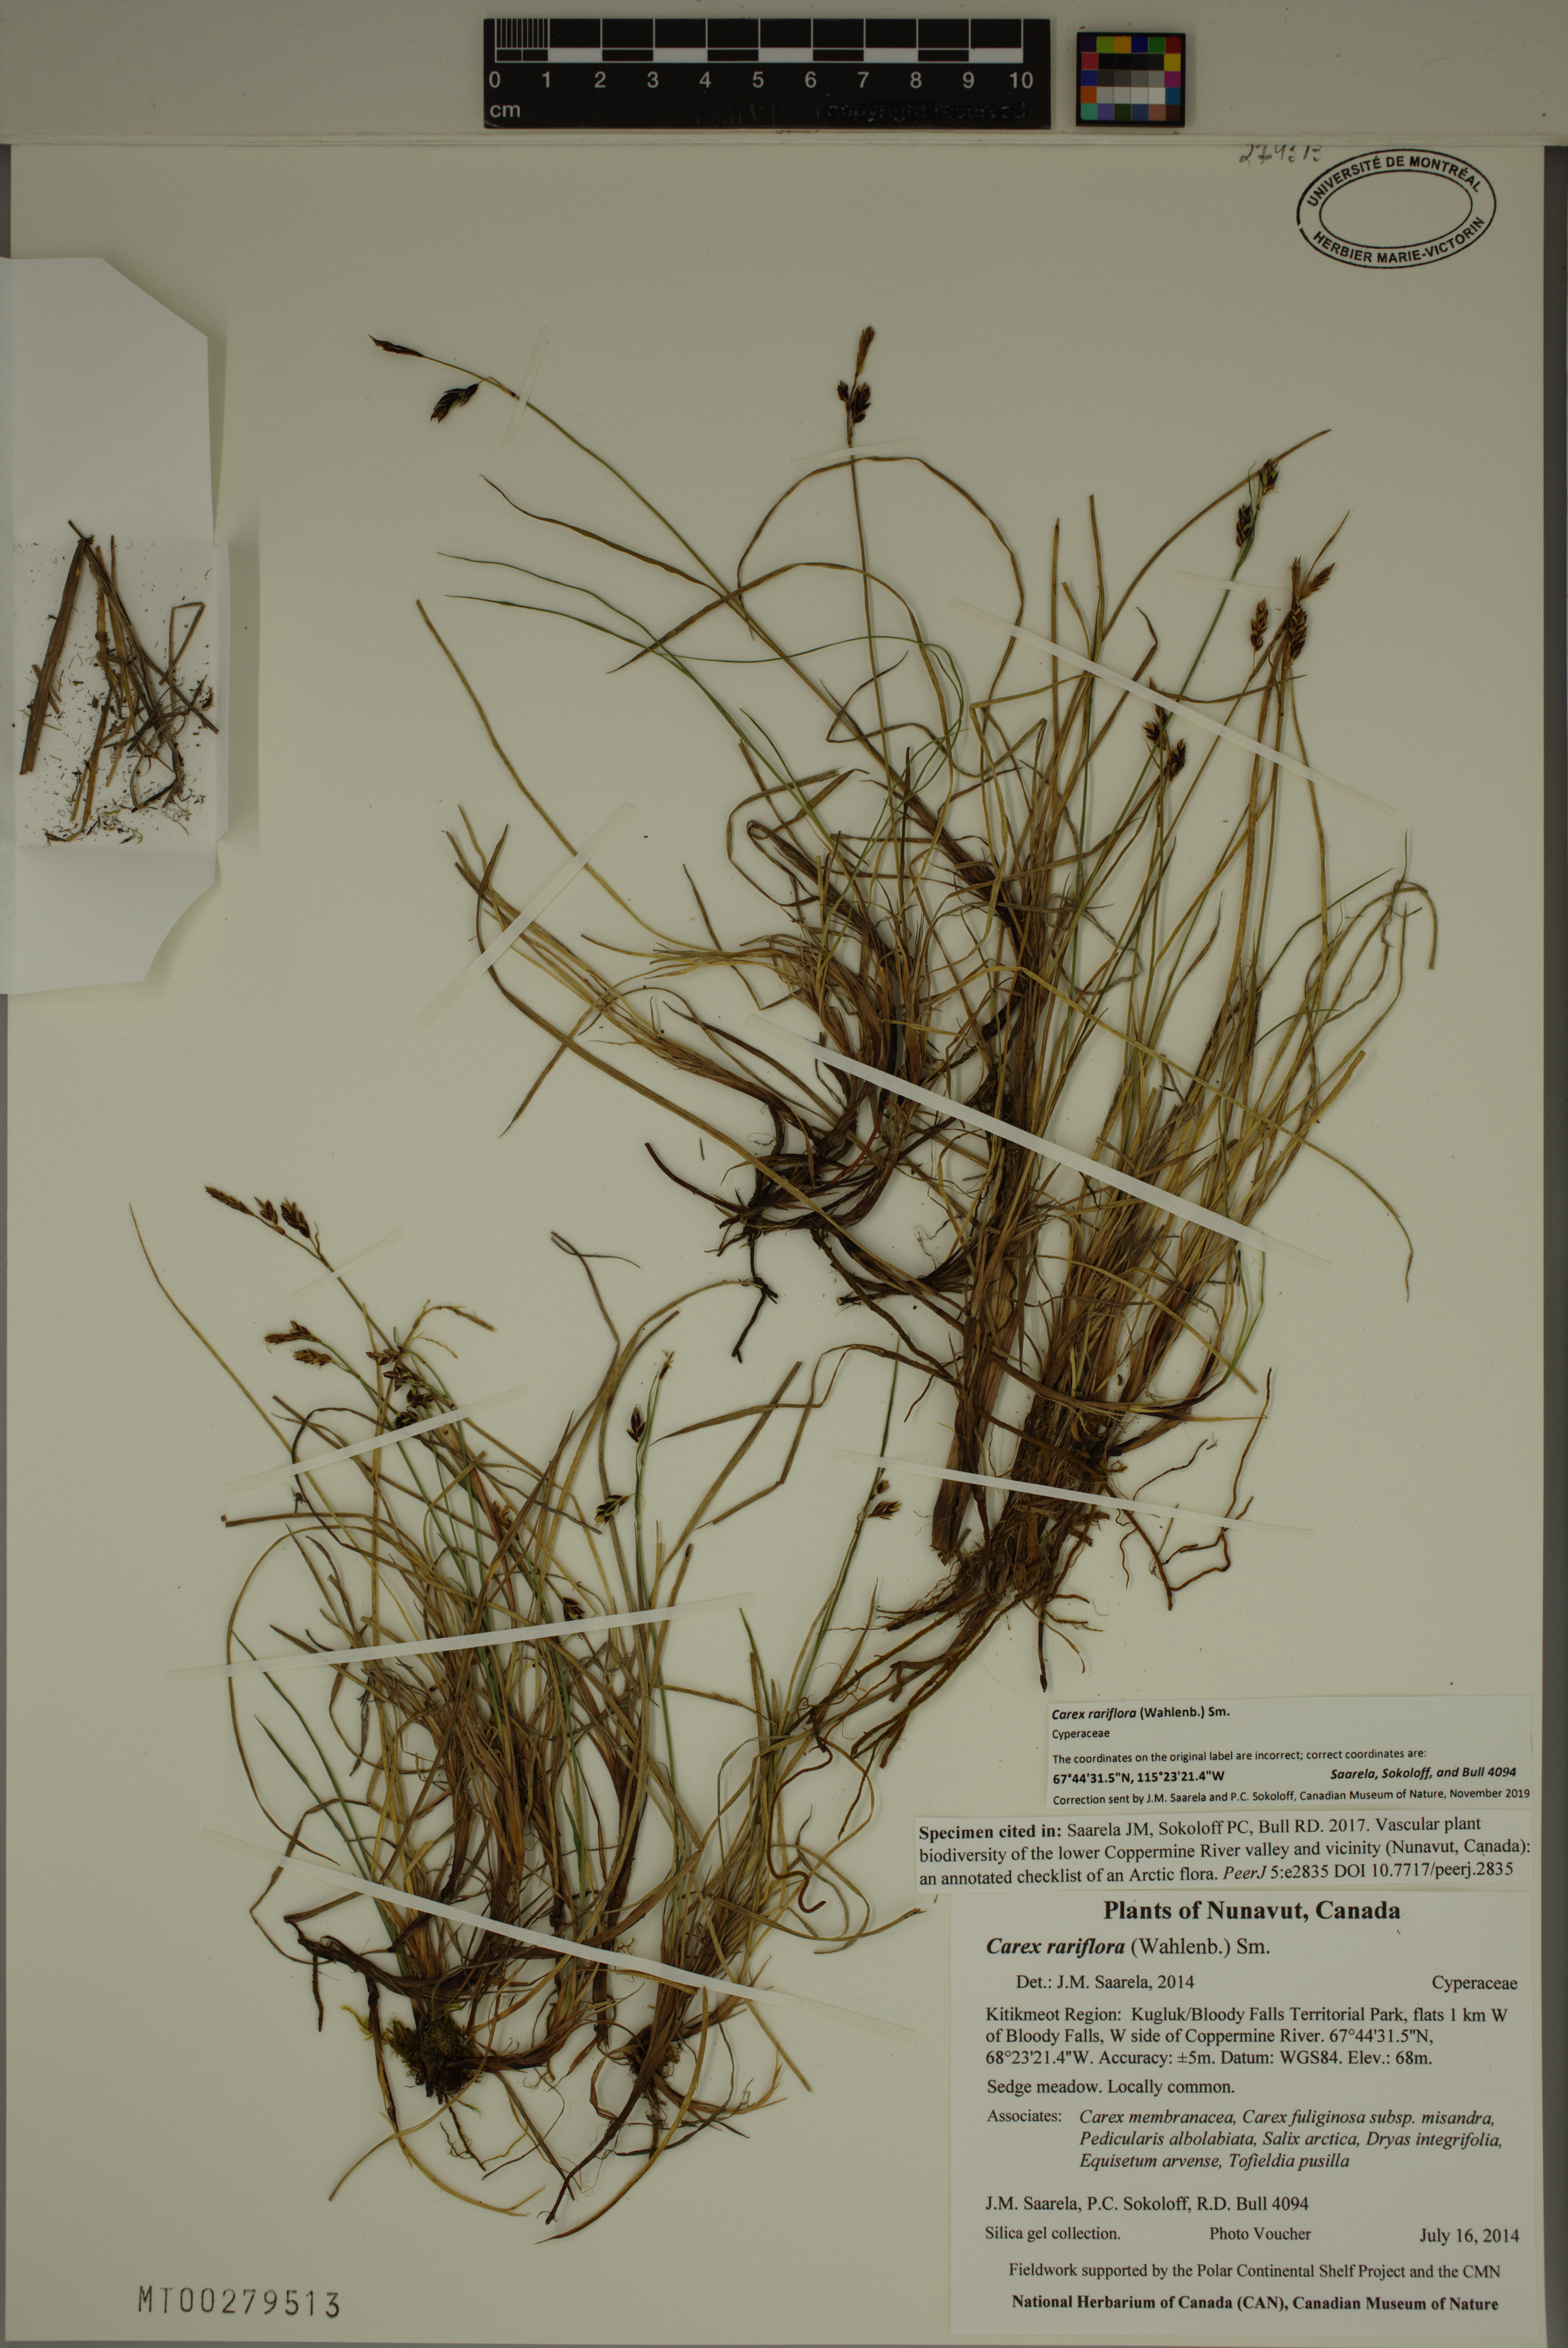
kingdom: Plantae
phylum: Tracheophyta
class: Liliopsida
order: Poales
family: Cyperaceae
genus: Carex
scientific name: Carex rariflora
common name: Loose-flowered alpine sedge
